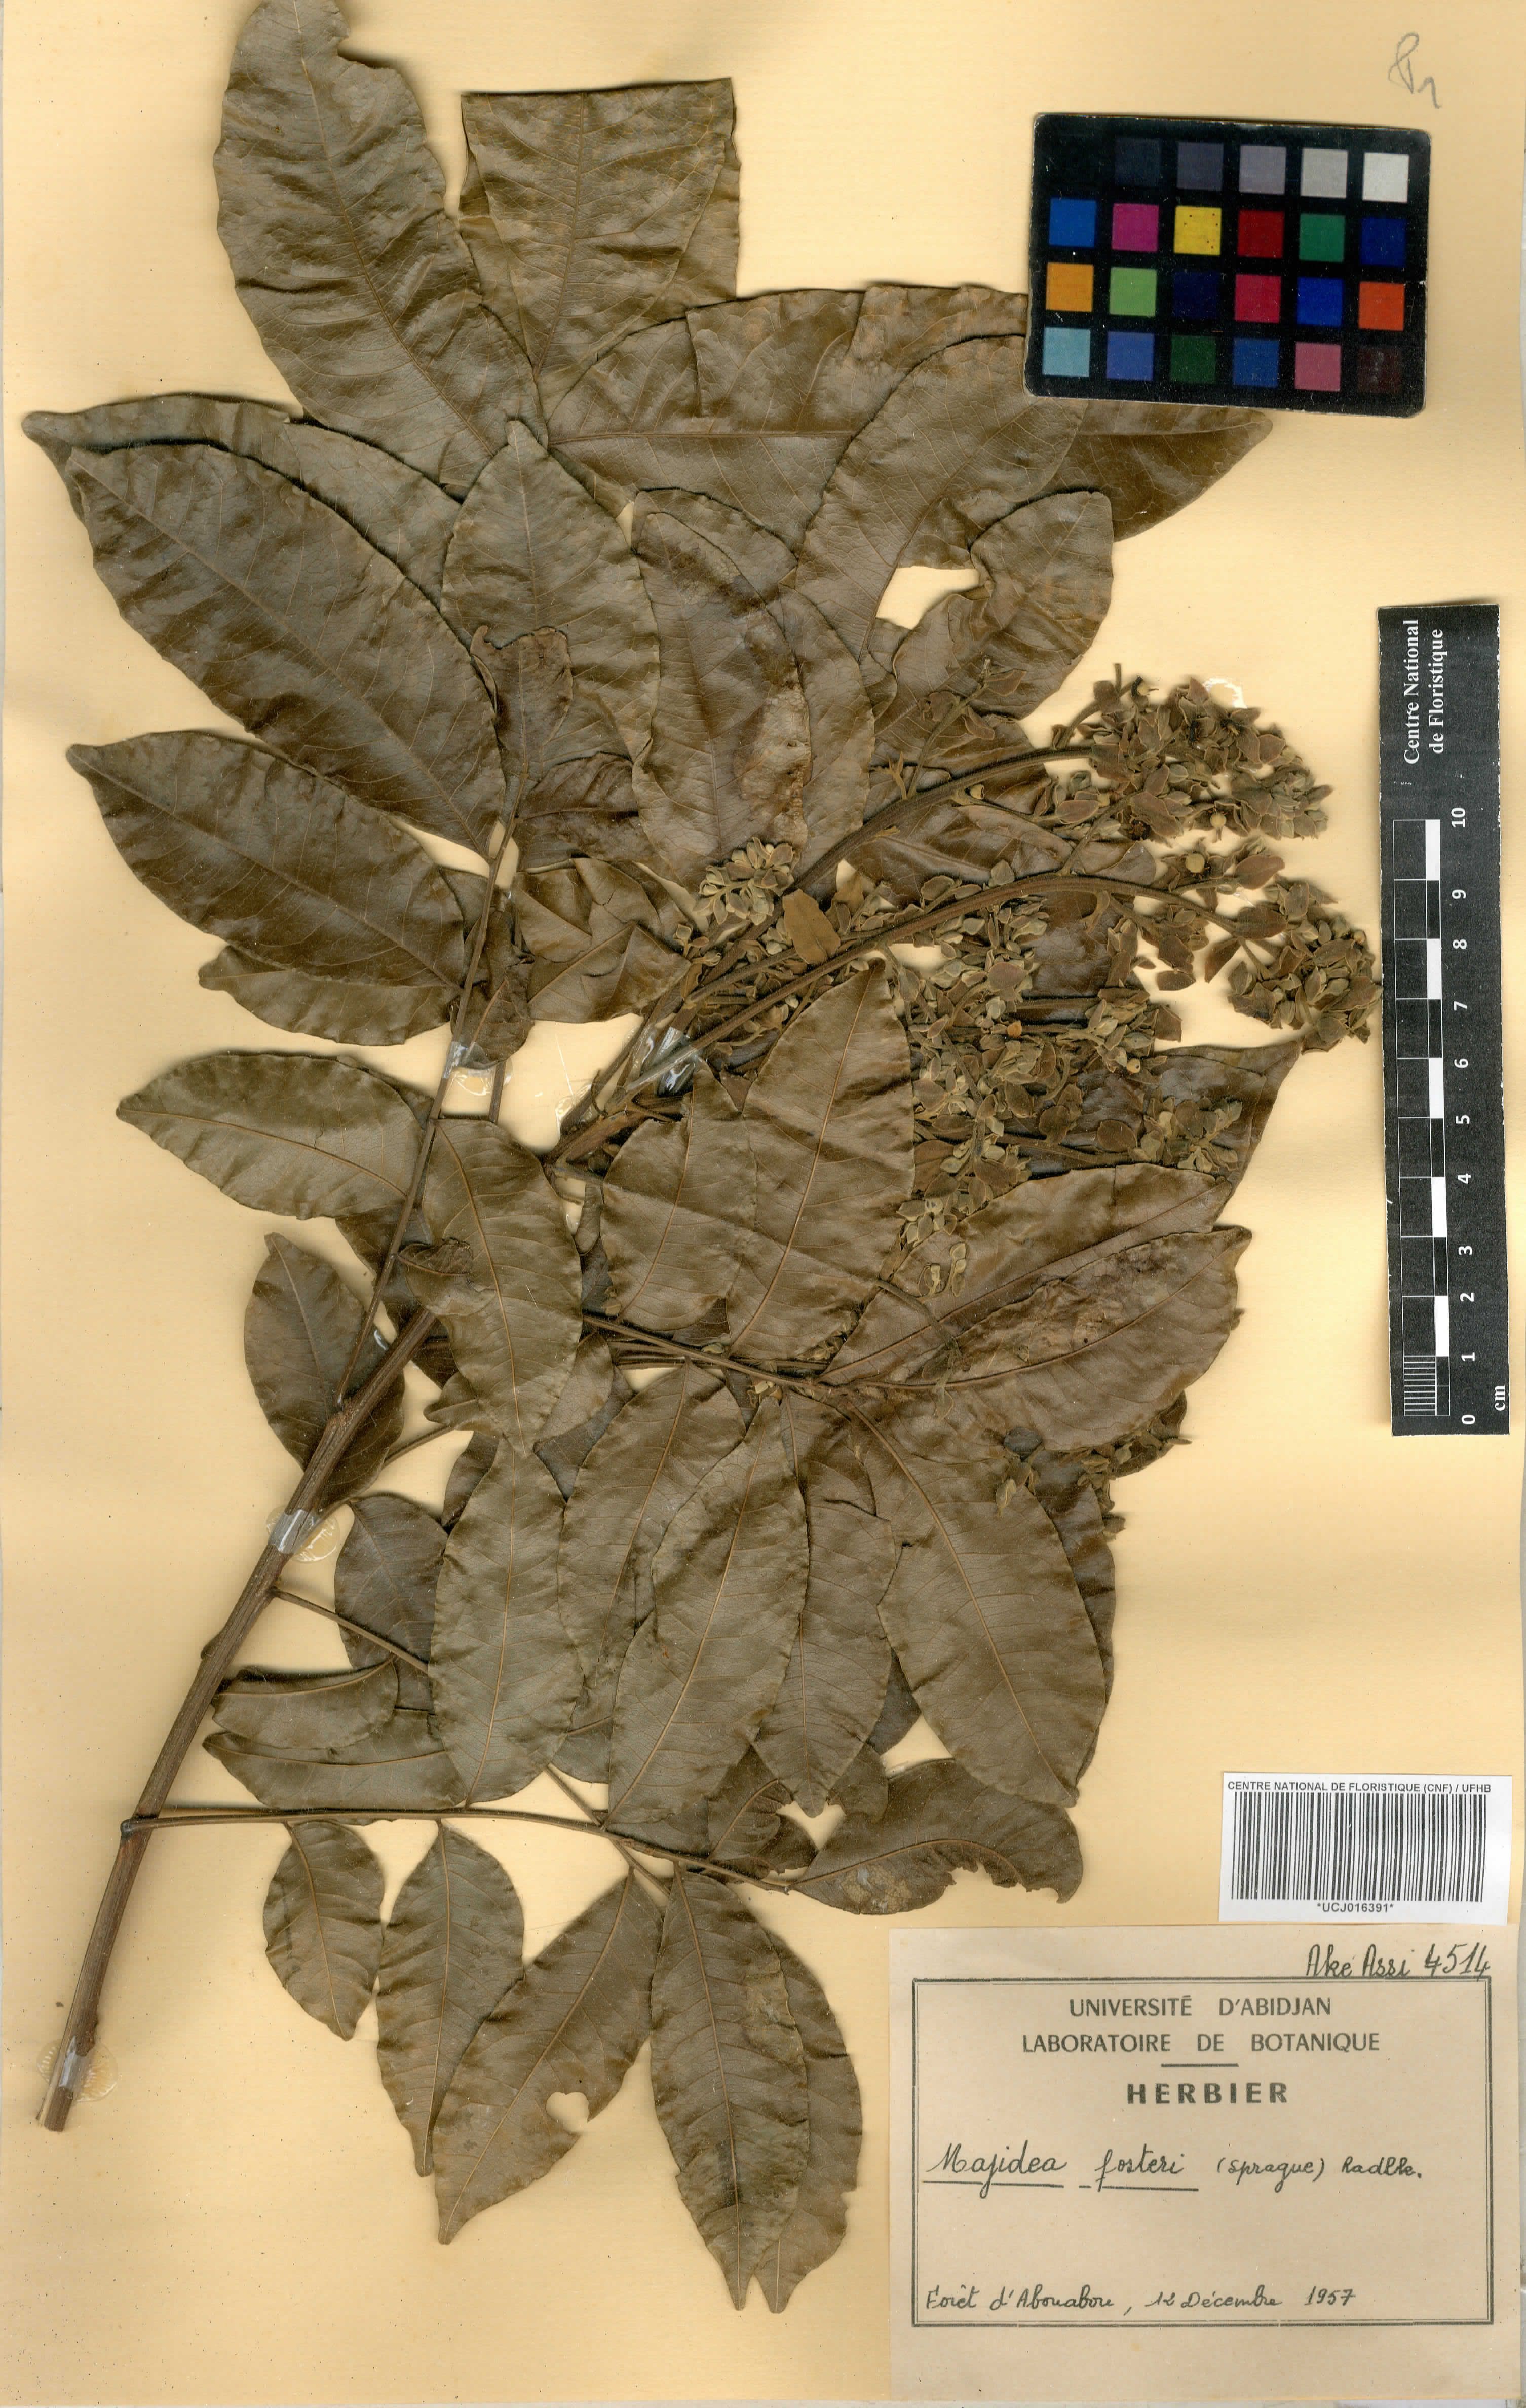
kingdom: Plantae
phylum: Tracheophyta
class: Magnoliopsida
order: Sapindales
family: Sapindaceae
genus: Majidea
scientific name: Majidea fosteri
